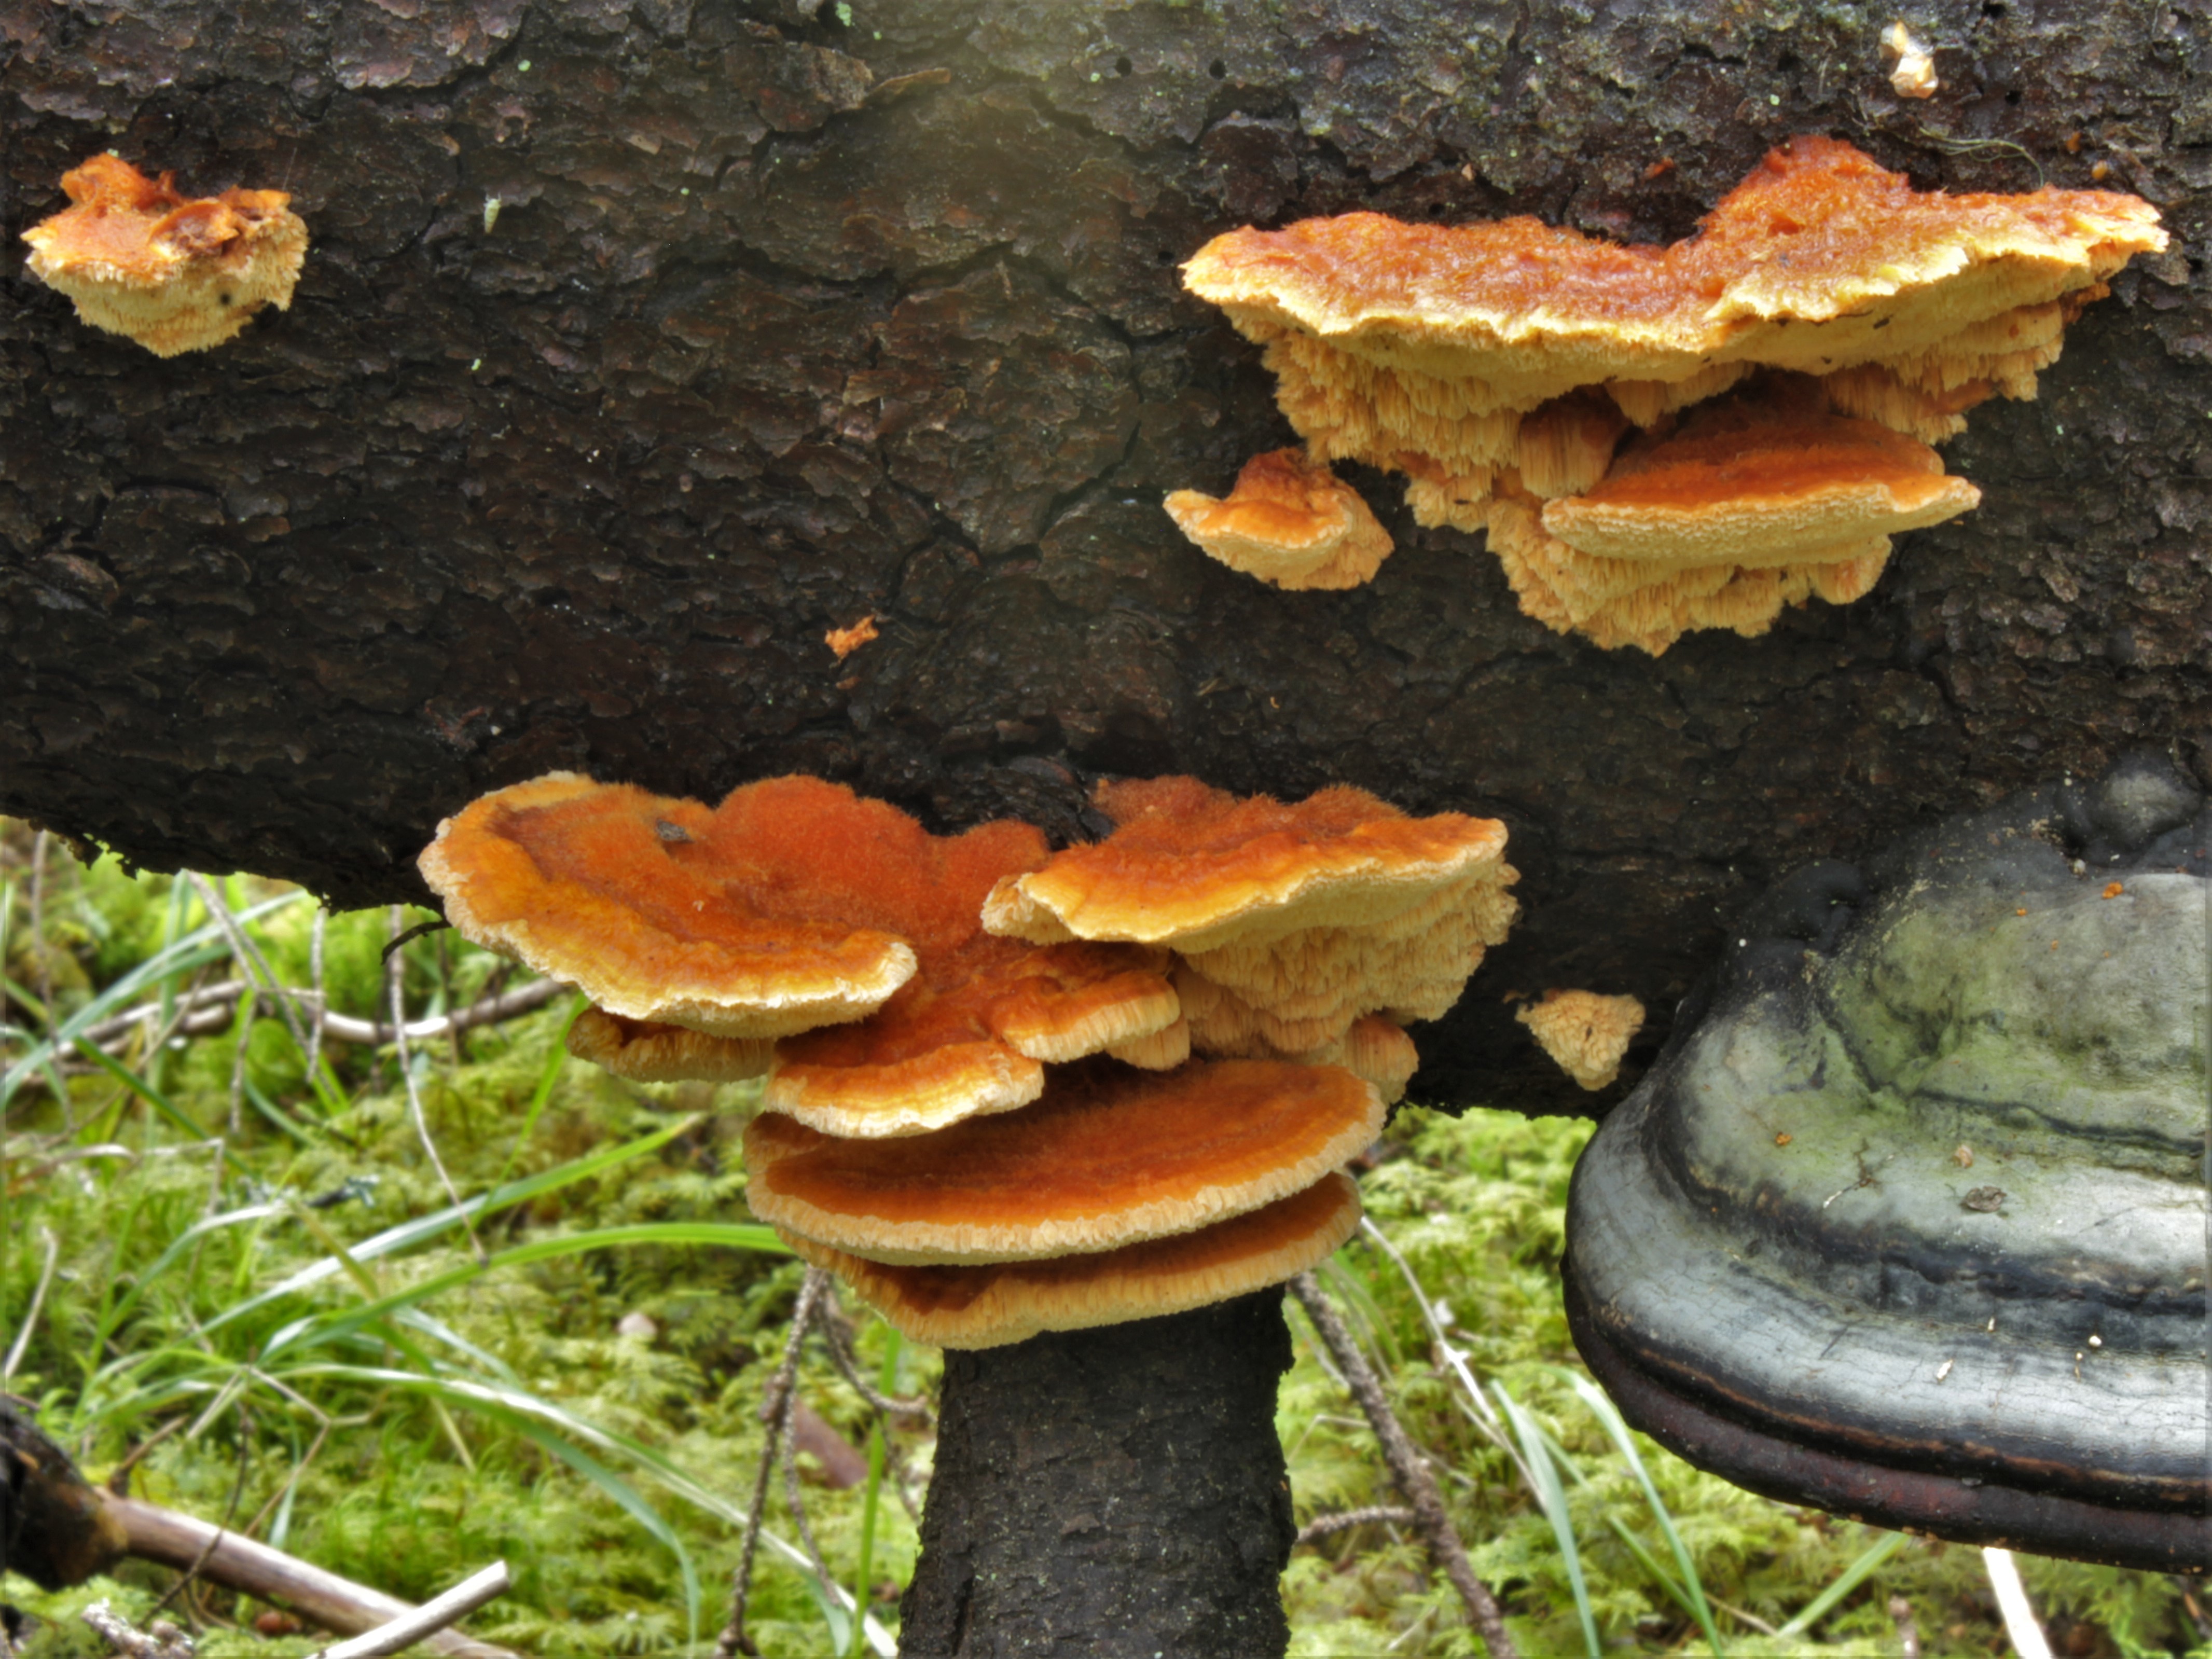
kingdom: Fungi
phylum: Basidiomycota
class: Agaricomycetes
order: Polyporales
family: Pycnoporellaceae
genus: Pycnoporellus
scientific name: Pycnoporellus fulgens
